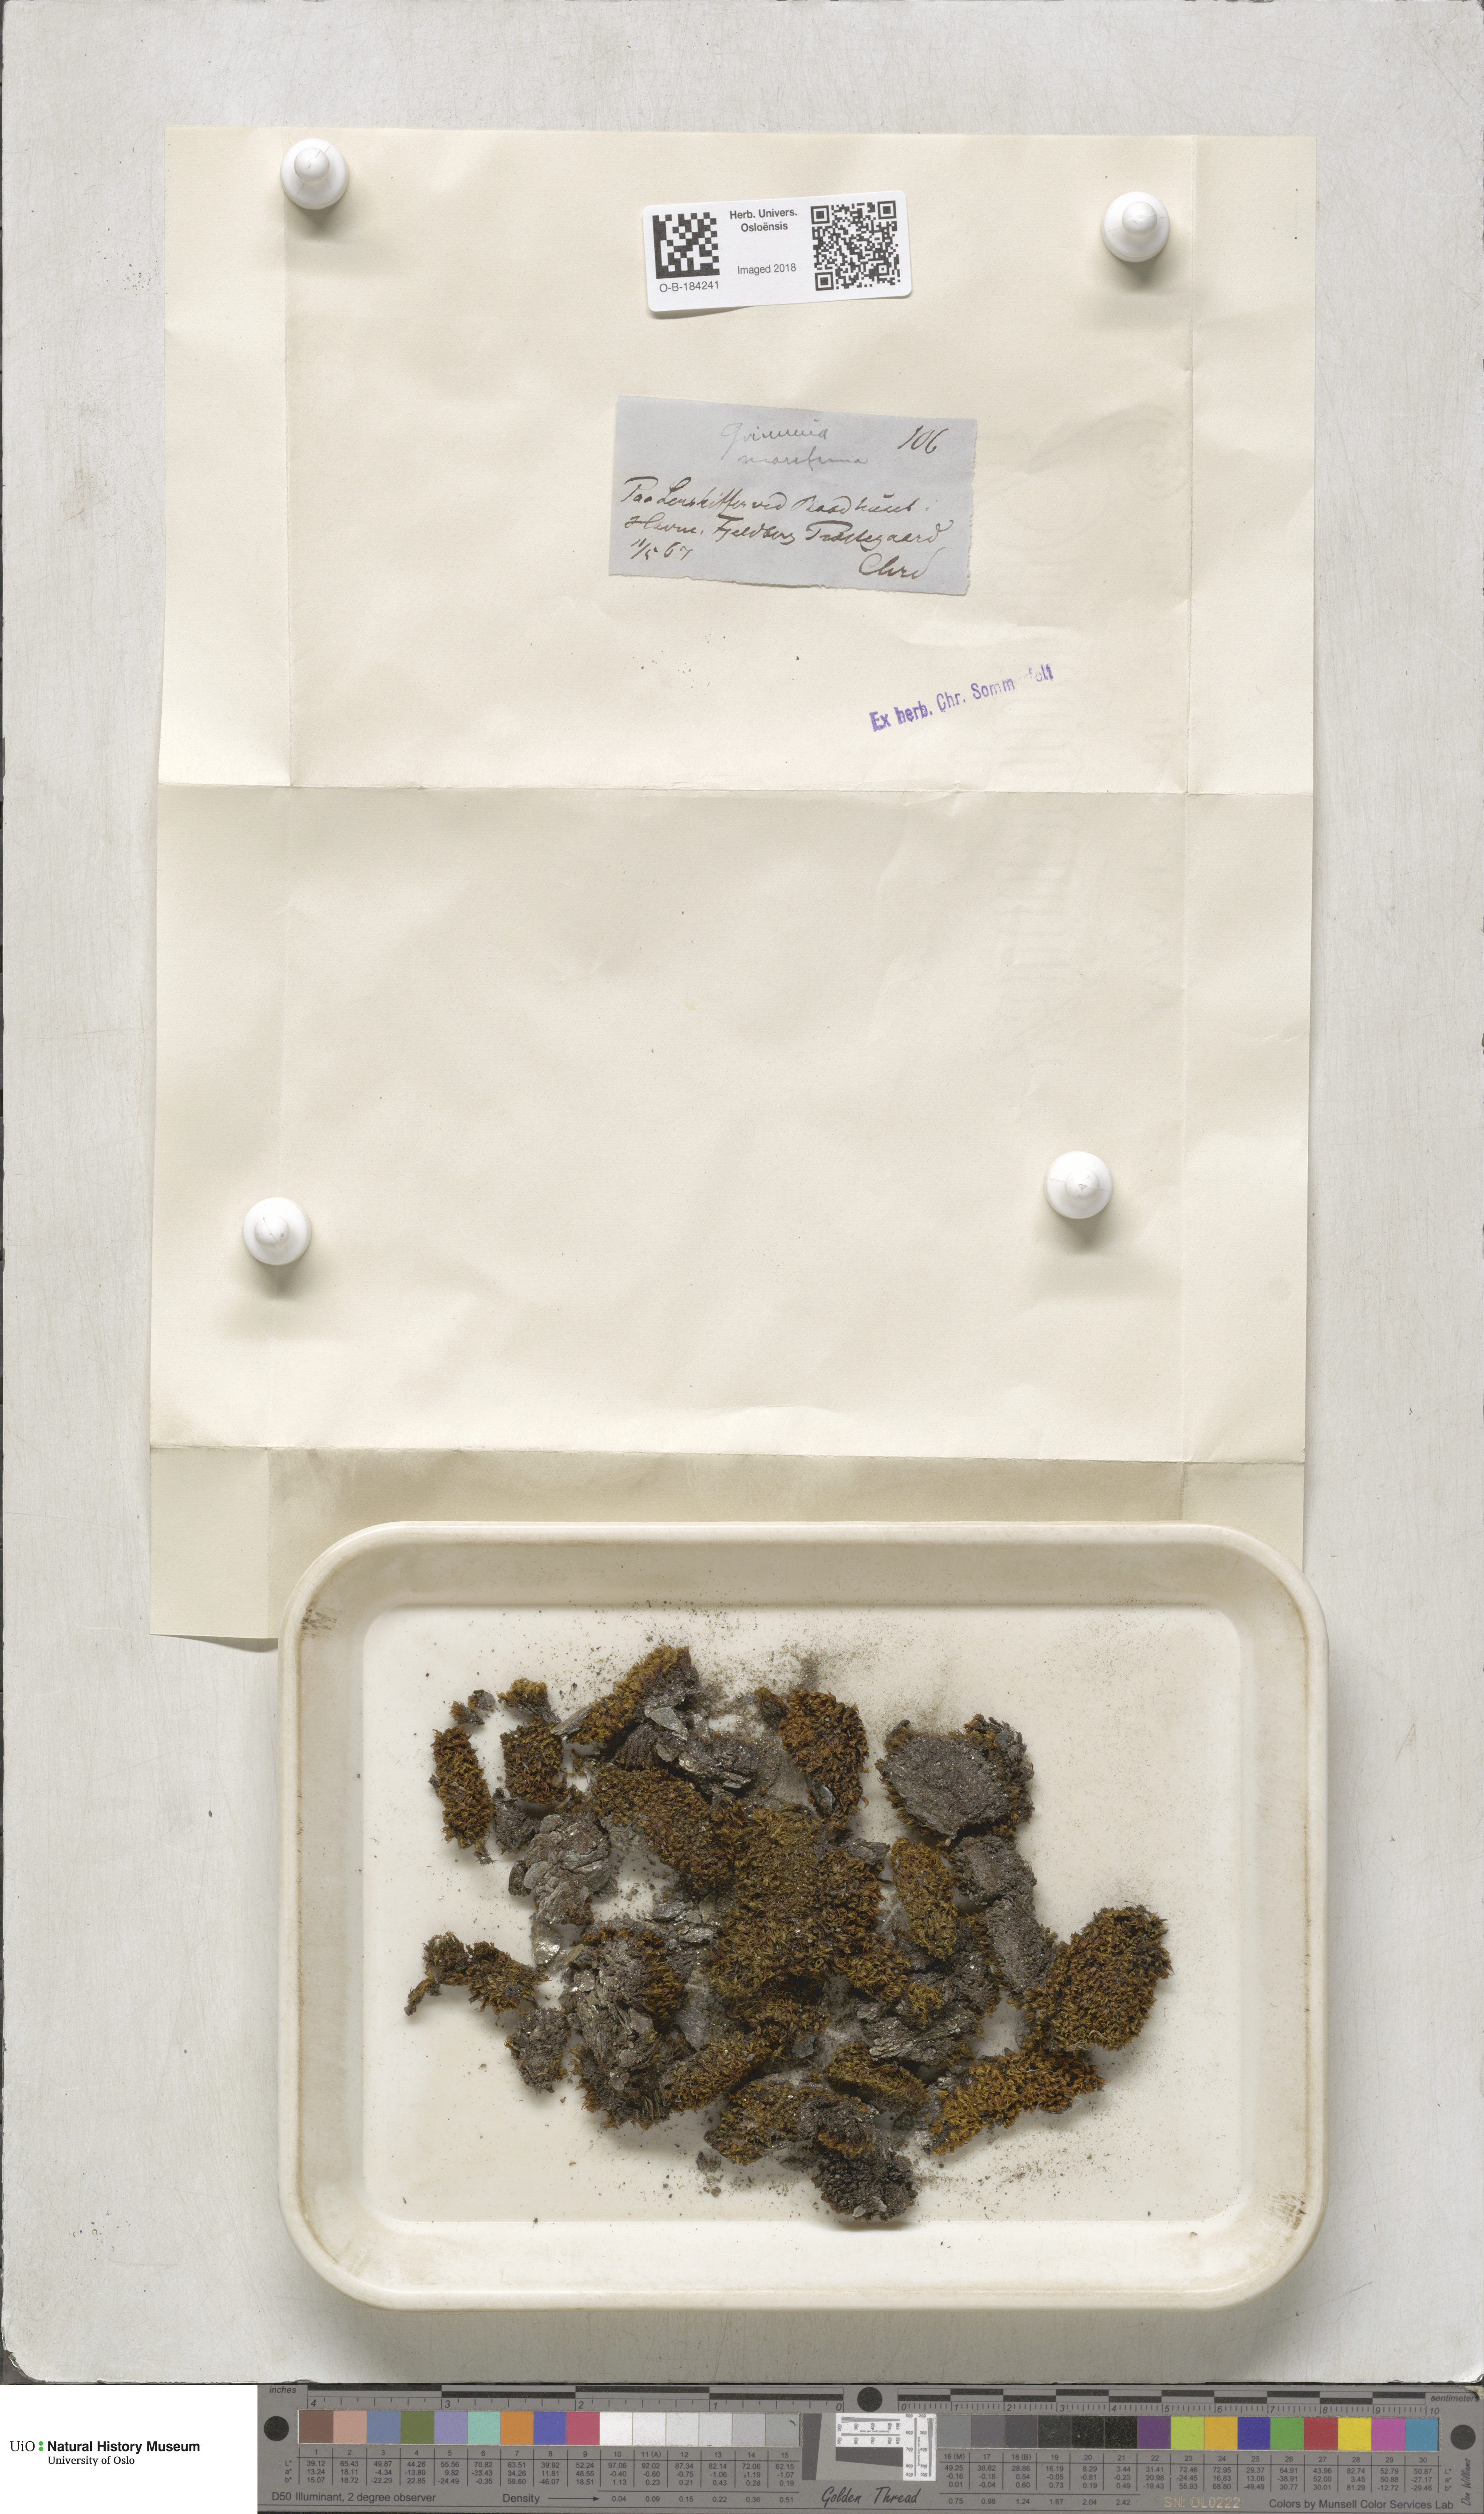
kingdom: Plantae
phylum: Bryophyta
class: Bryopsida
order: Grimmiales
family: Grimmiaceae
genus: Schistidium
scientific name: Schistidium maritimum
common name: Seaside bloom moss
